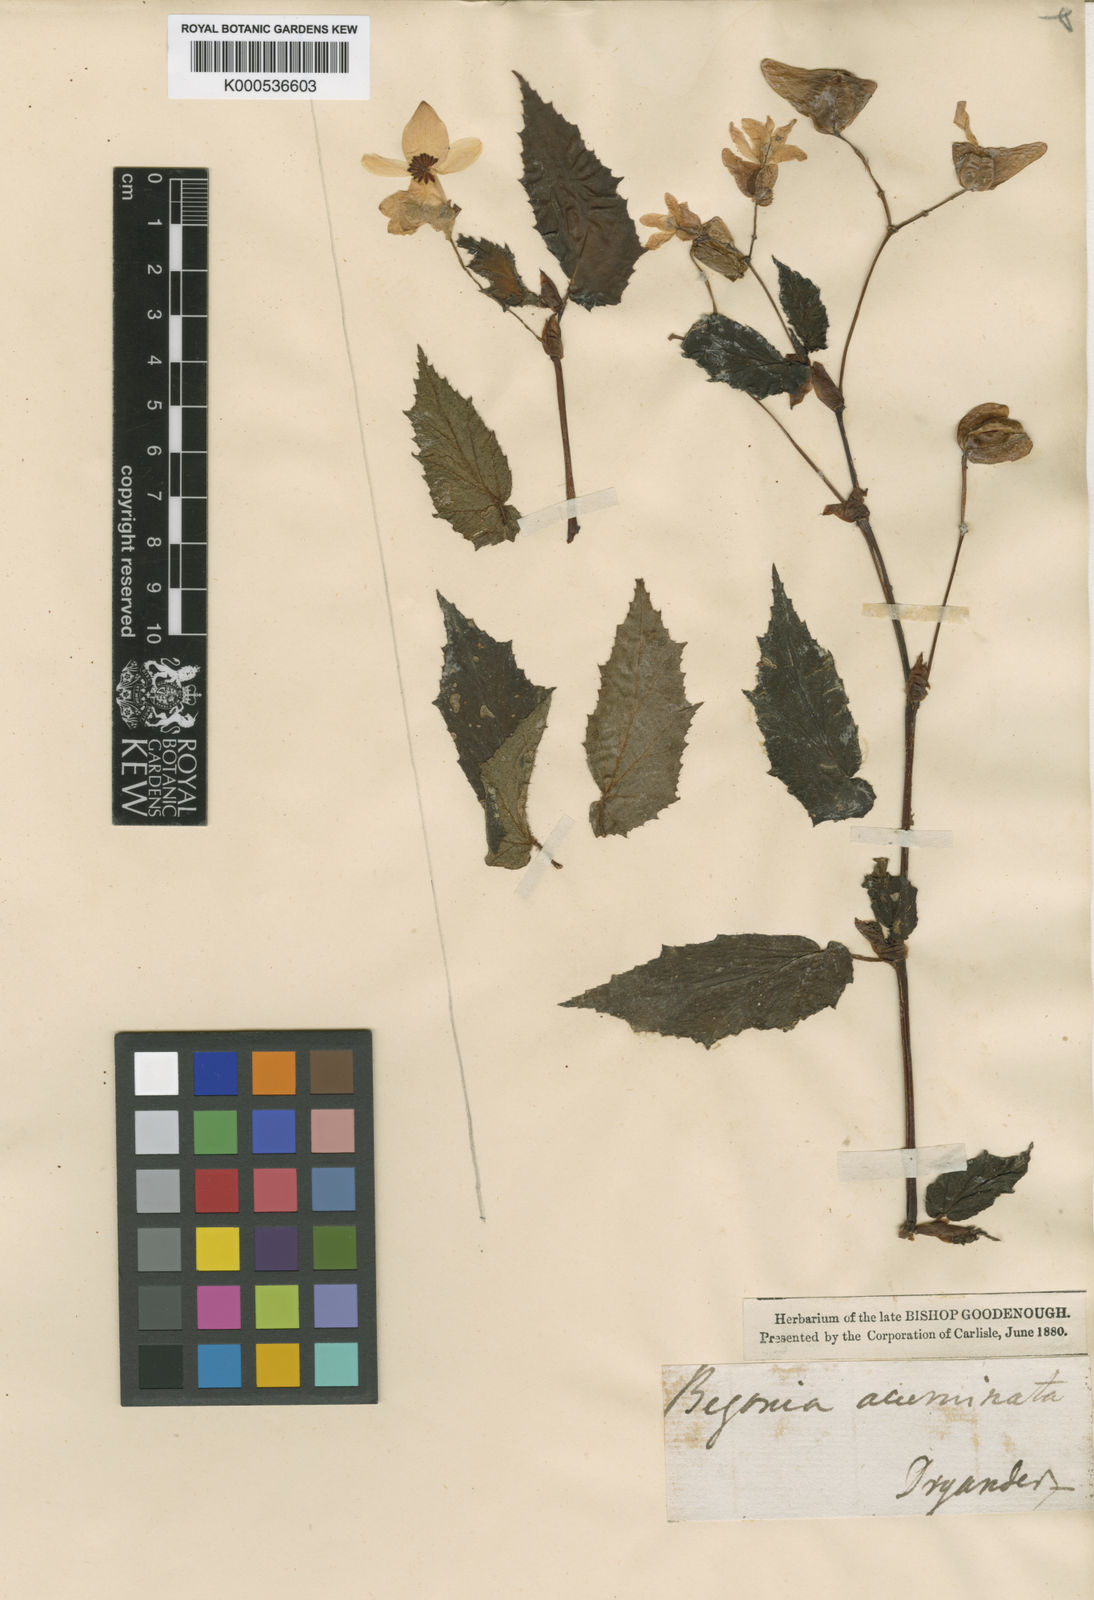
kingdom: Plantae
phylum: Tracheophyta
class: Magnoliopsida
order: Cucurbitales
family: Begoniaceae
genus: Begonia
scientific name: Begonia acutifolia
